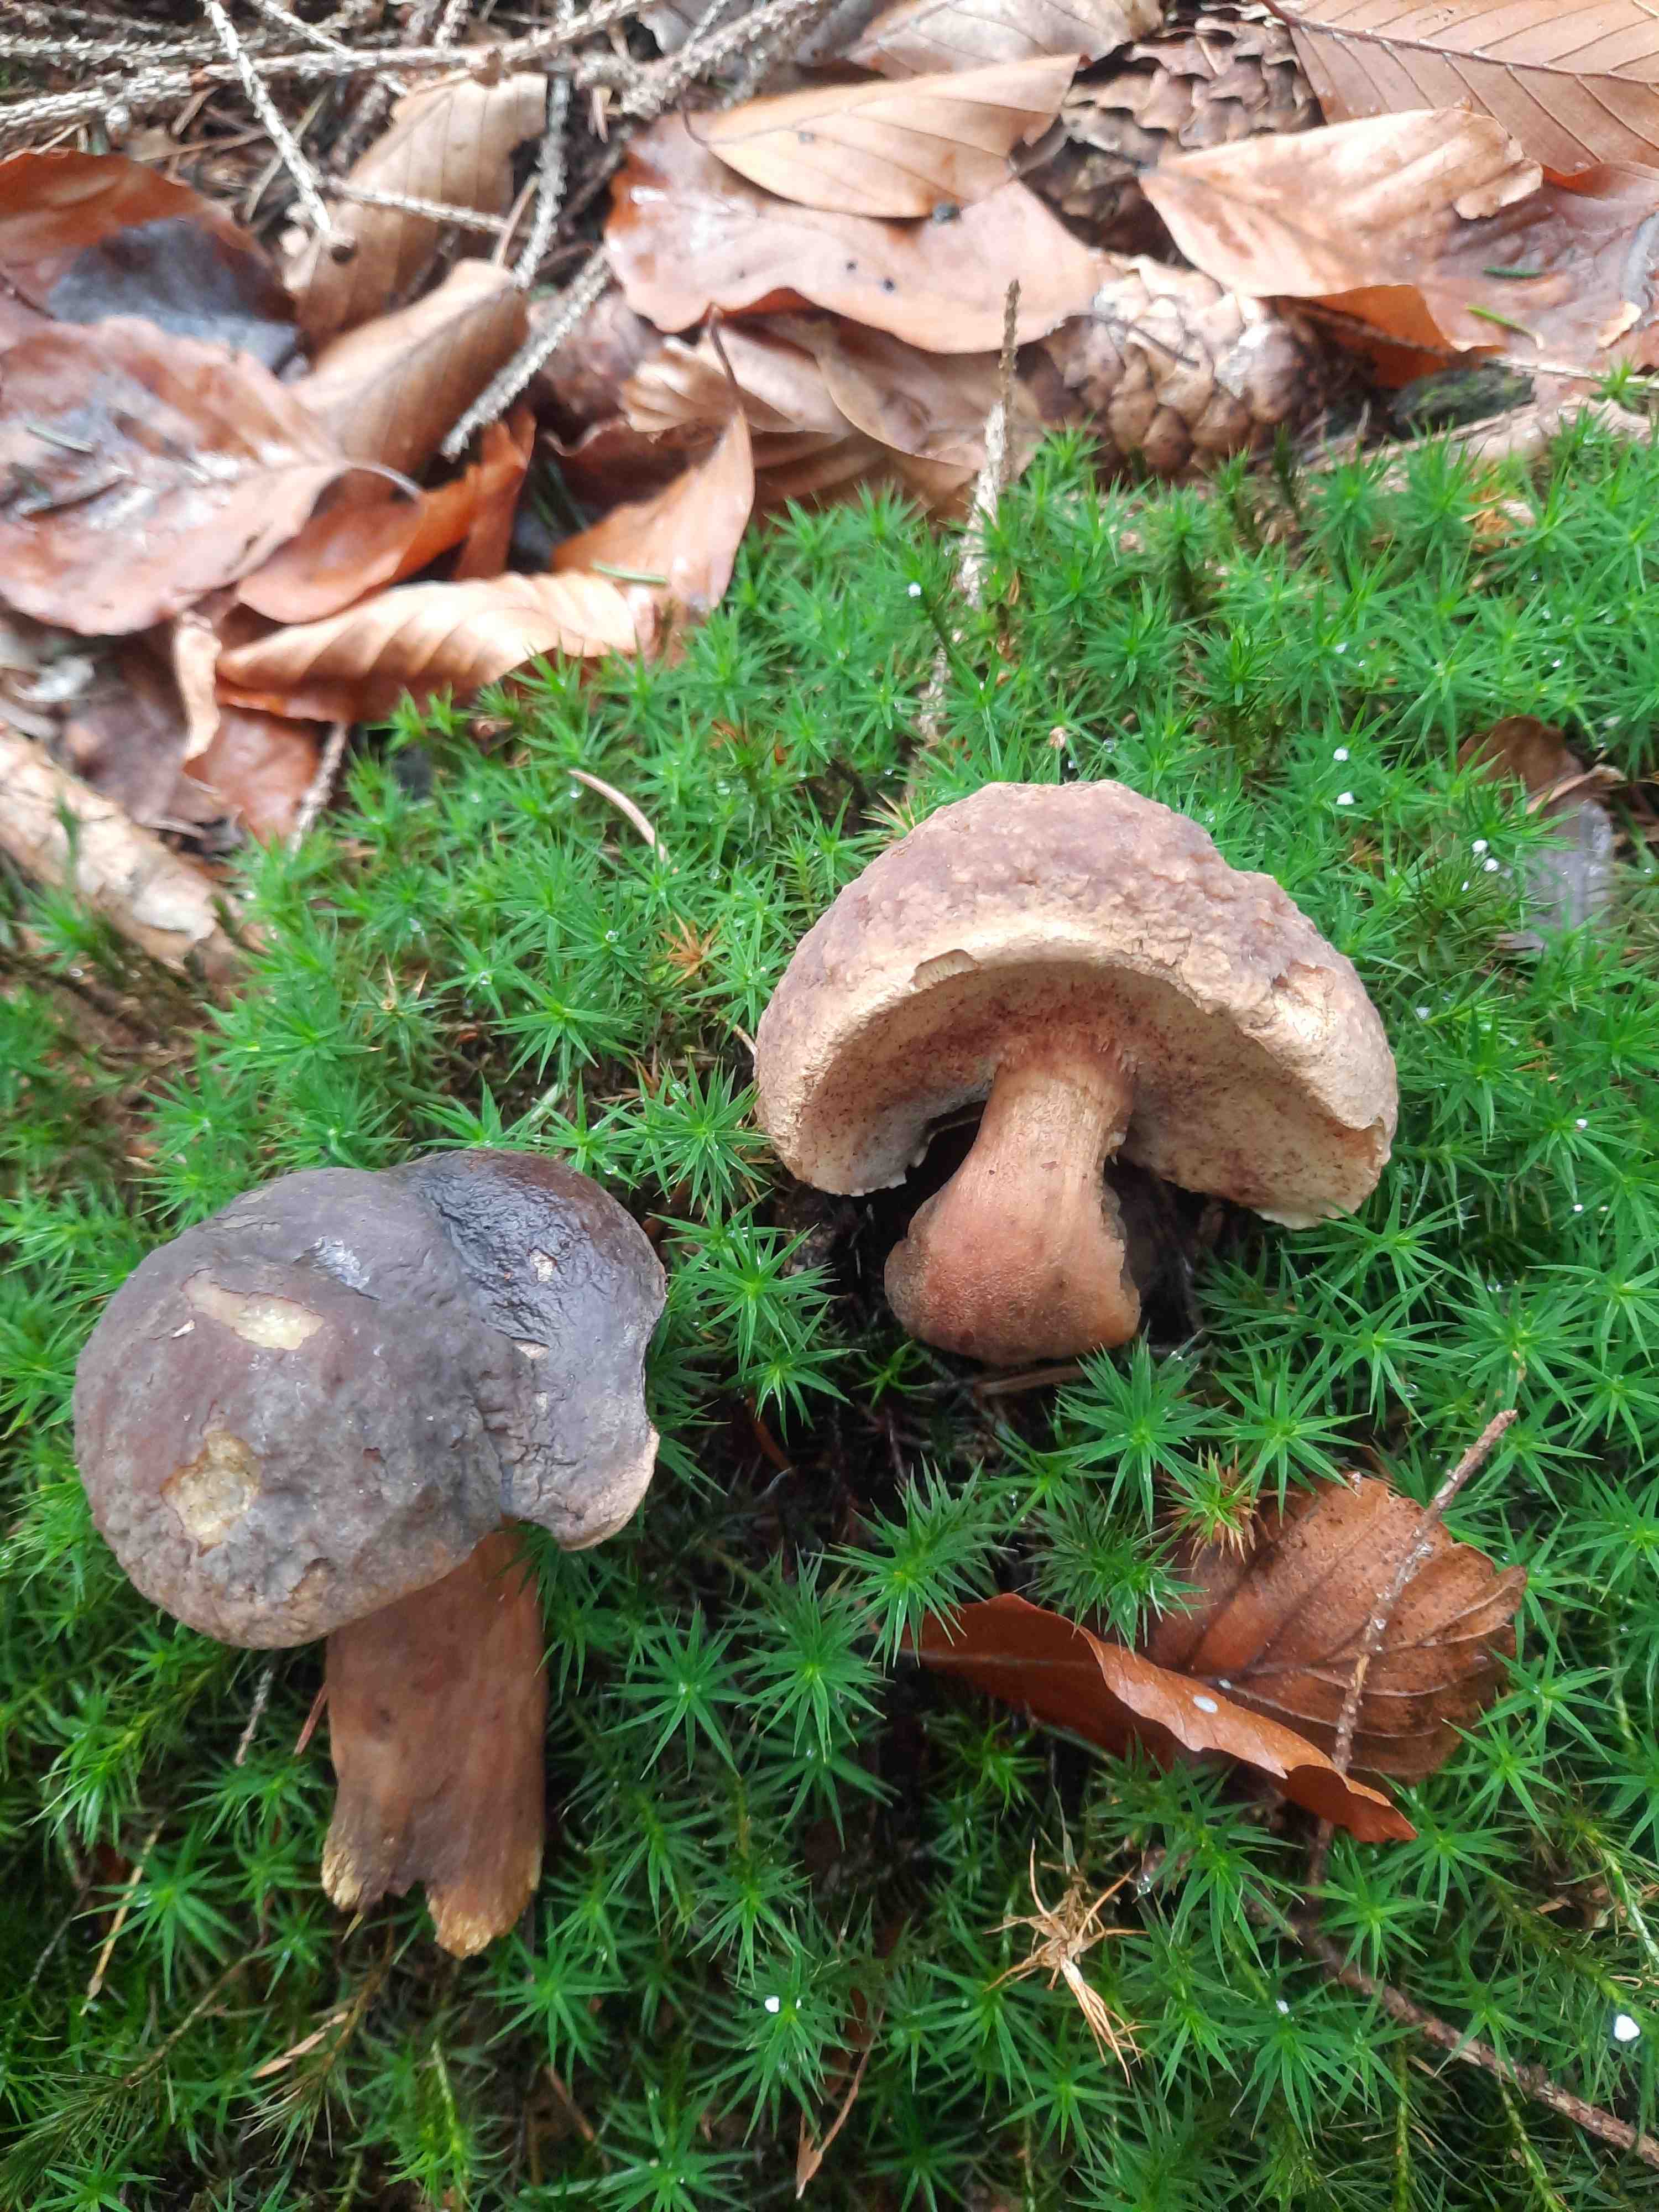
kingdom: Fungi
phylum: Basidiomycota
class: Agaricomycetes
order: Boletales
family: Boletaceae
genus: Xerocomellus
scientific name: Xerocomellus pruinatus
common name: dugget rørhat
